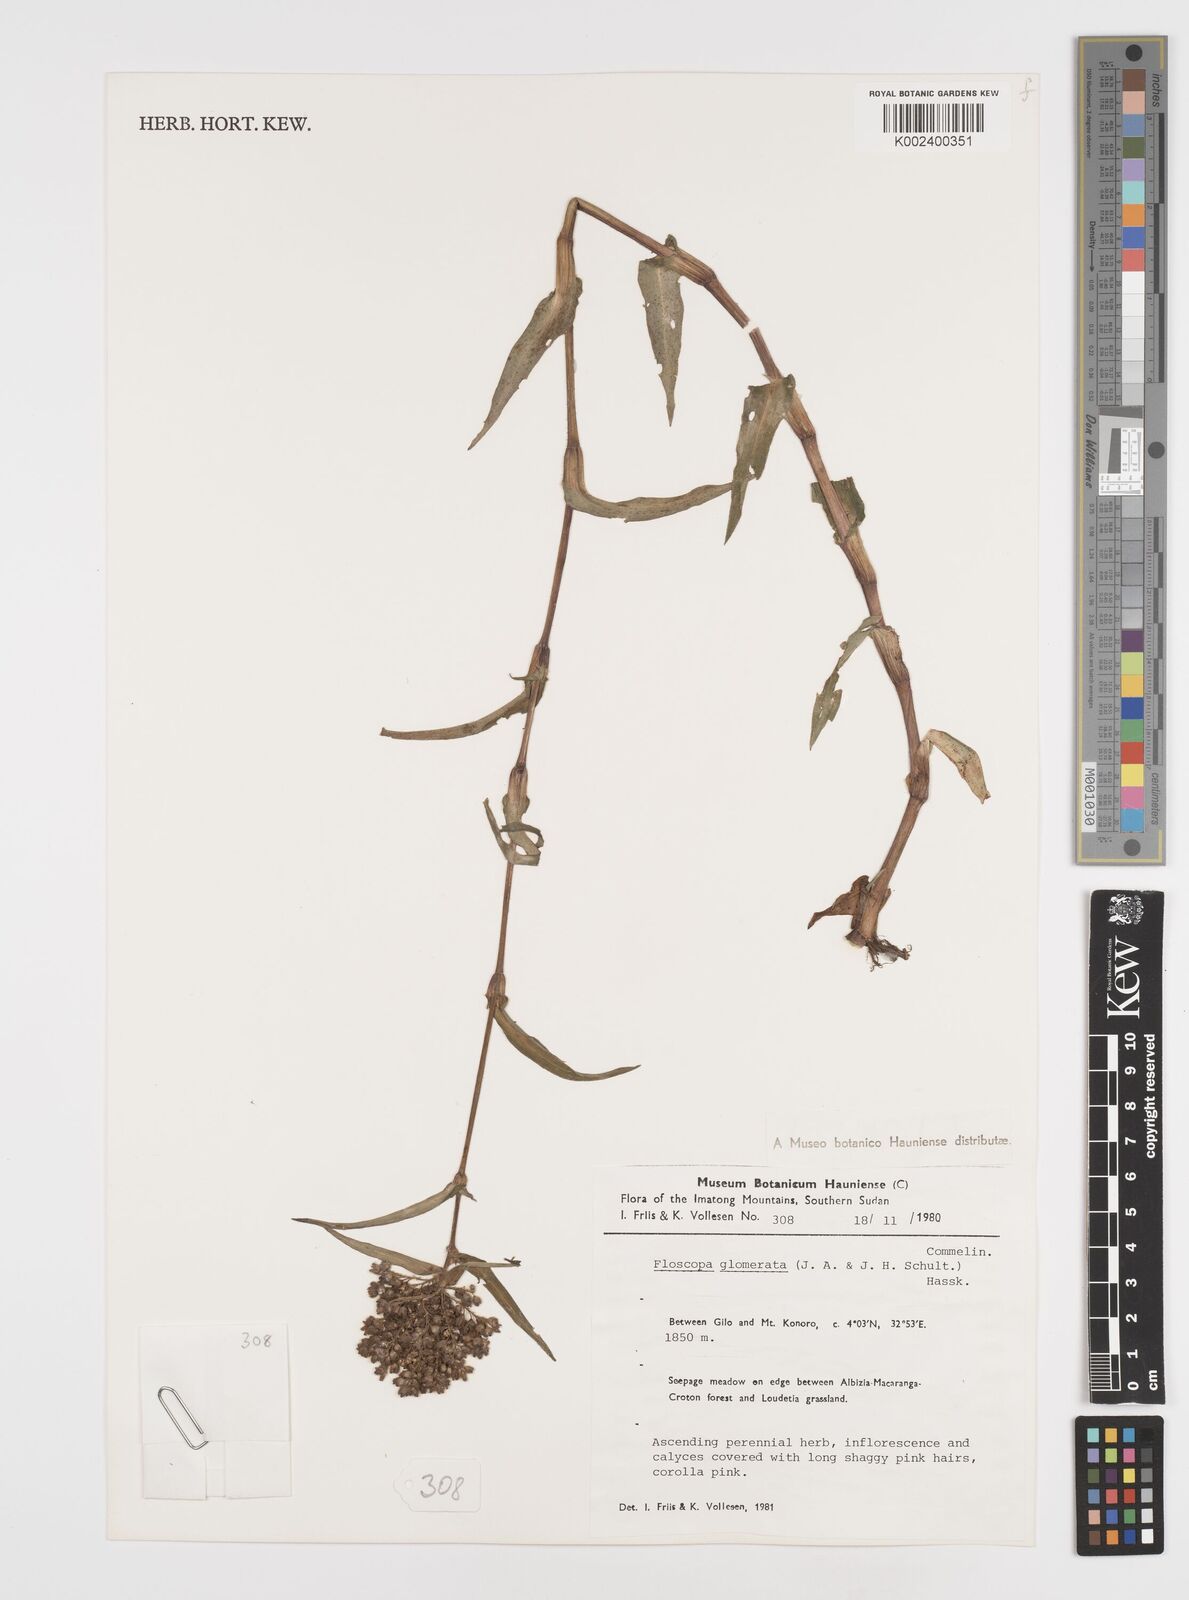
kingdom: Plantae
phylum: Tracheophyta
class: Liliopsida
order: Commelinales
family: Commelinaceae
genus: Floscopa
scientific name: Floscopa glomerata
